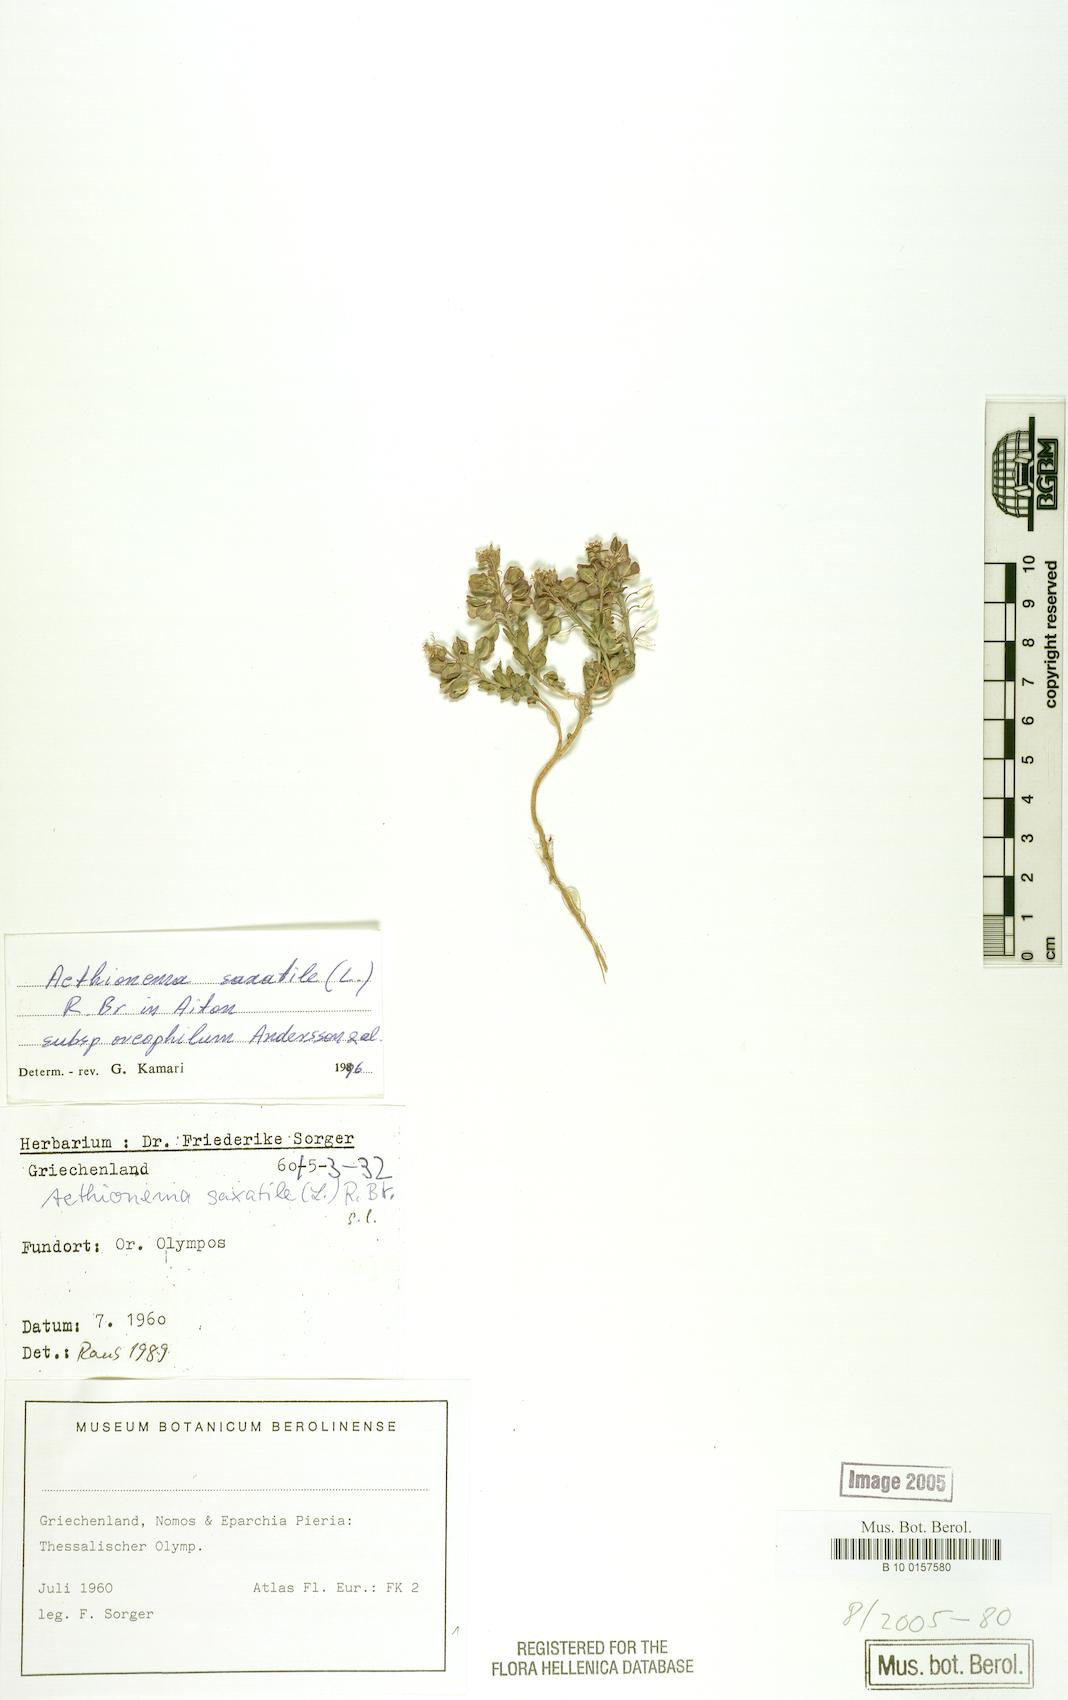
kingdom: Plantae
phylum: Tracheophyta
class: Magnoliopsida
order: Brassicales
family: Brassicaceae
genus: Aethionema
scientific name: Aethionema saxatile
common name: Burnt candytuft
